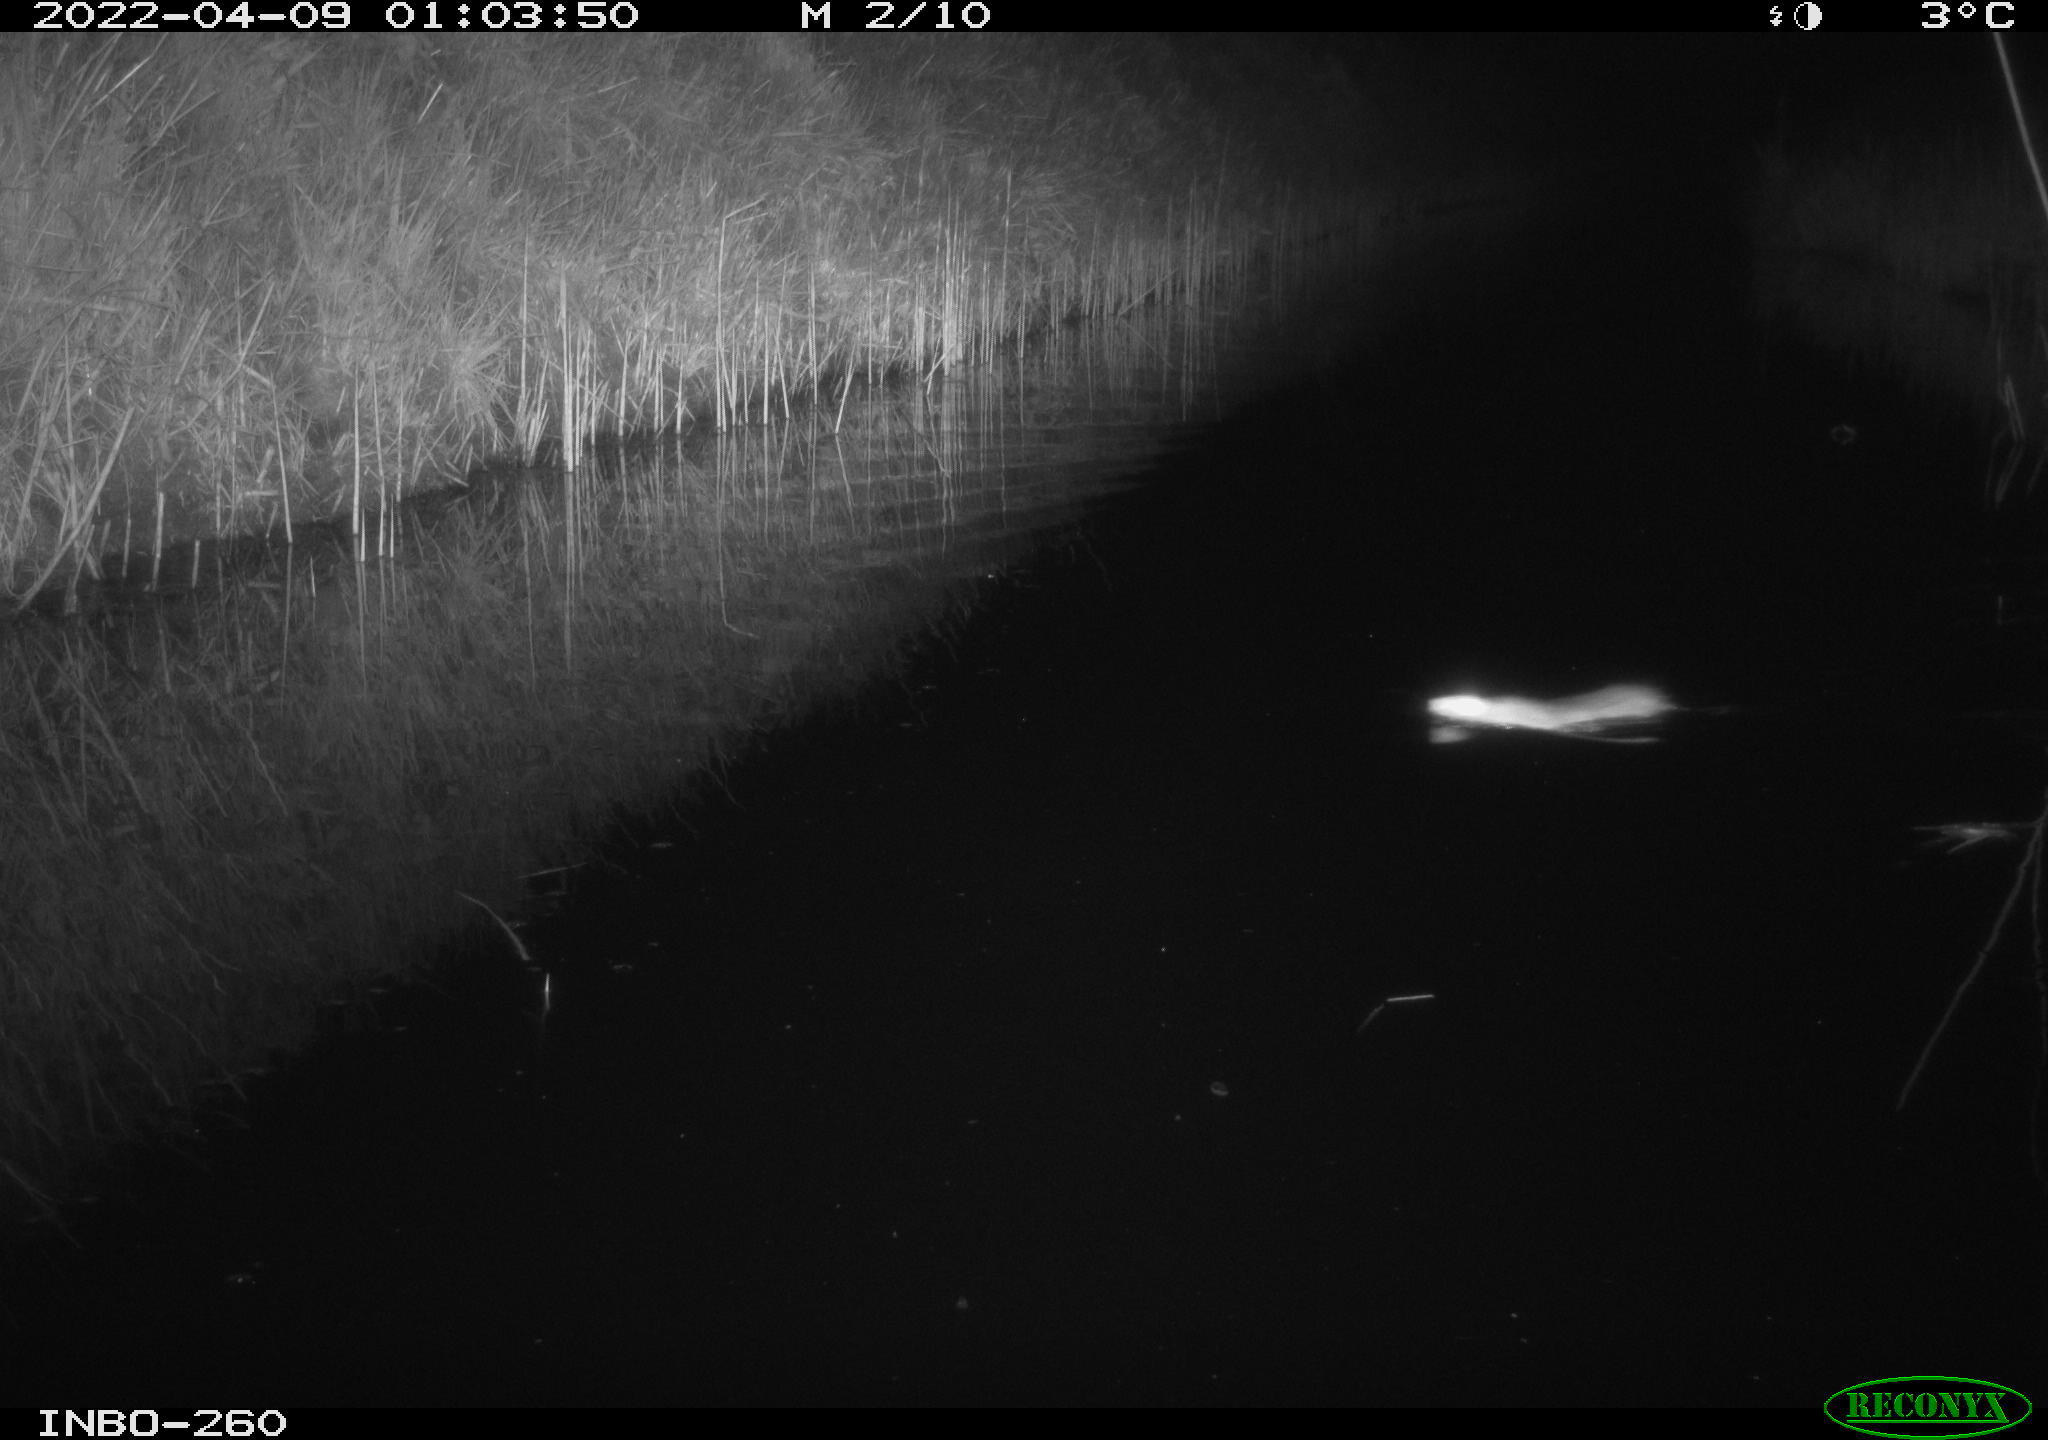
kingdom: Animalia
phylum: Chordata
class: Mammalia
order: Rodentia
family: Muridae
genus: Rattus
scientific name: Rattus norvegicus
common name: Brown rat
